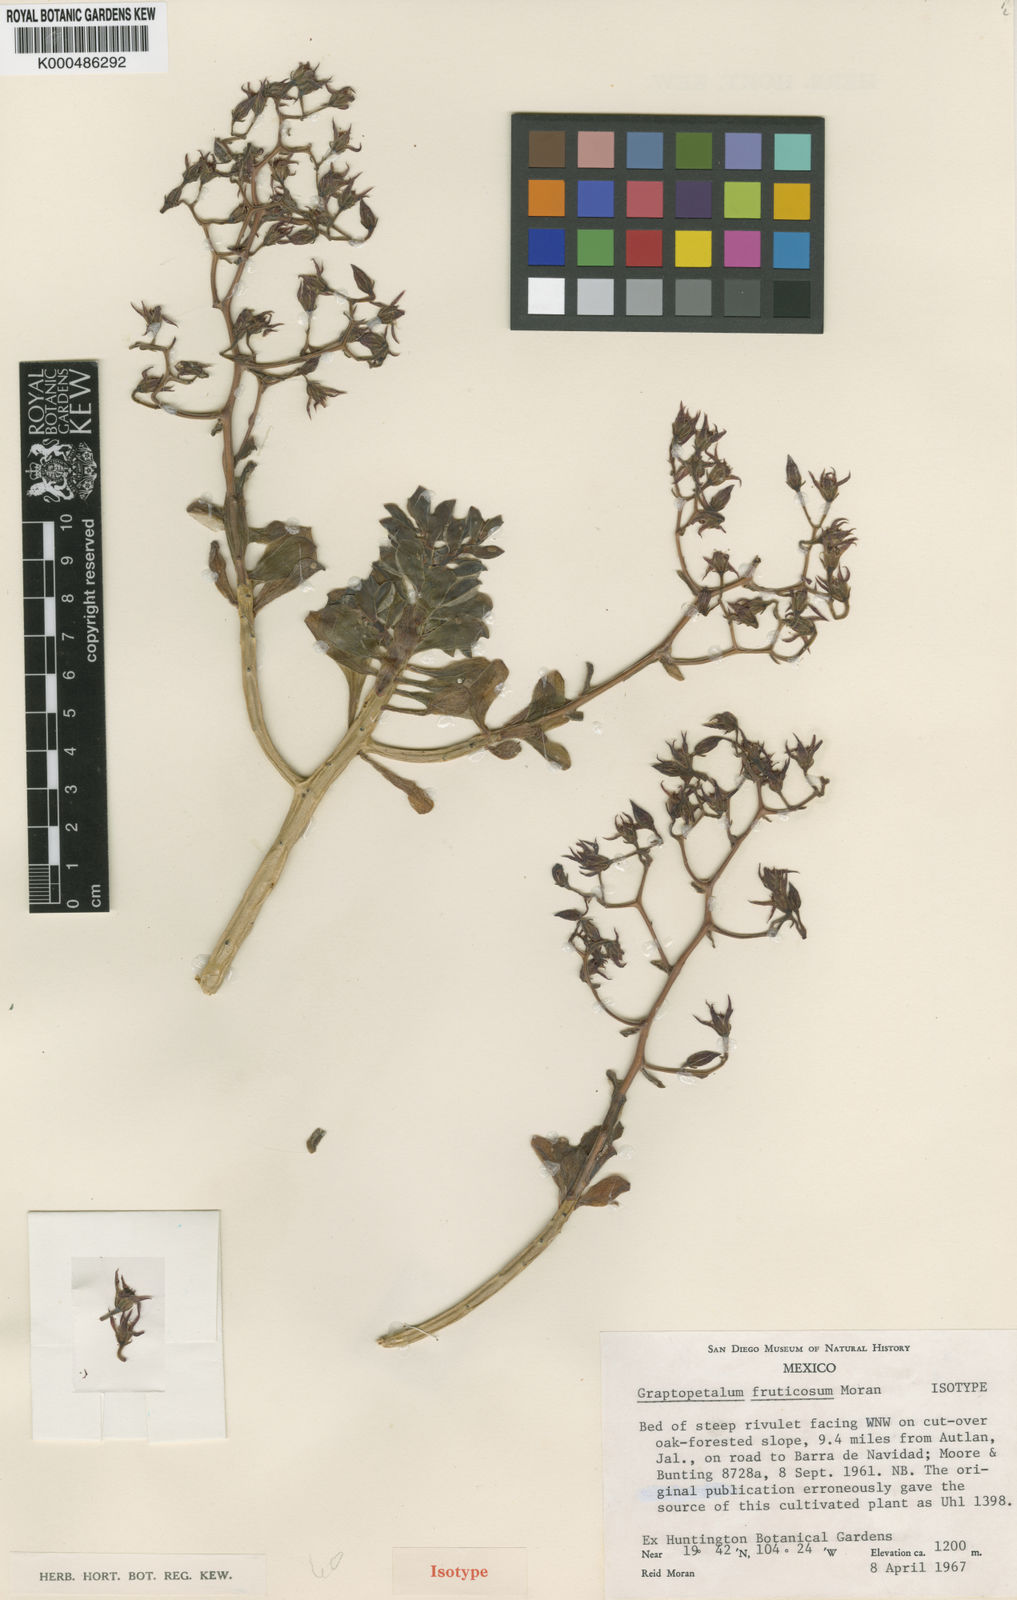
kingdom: Plantae
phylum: Tracheophyta
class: Magnoliopsida
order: Saxifragales
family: Crassulaceae
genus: Graptopetalum
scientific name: Graptopetalum fruticosum
